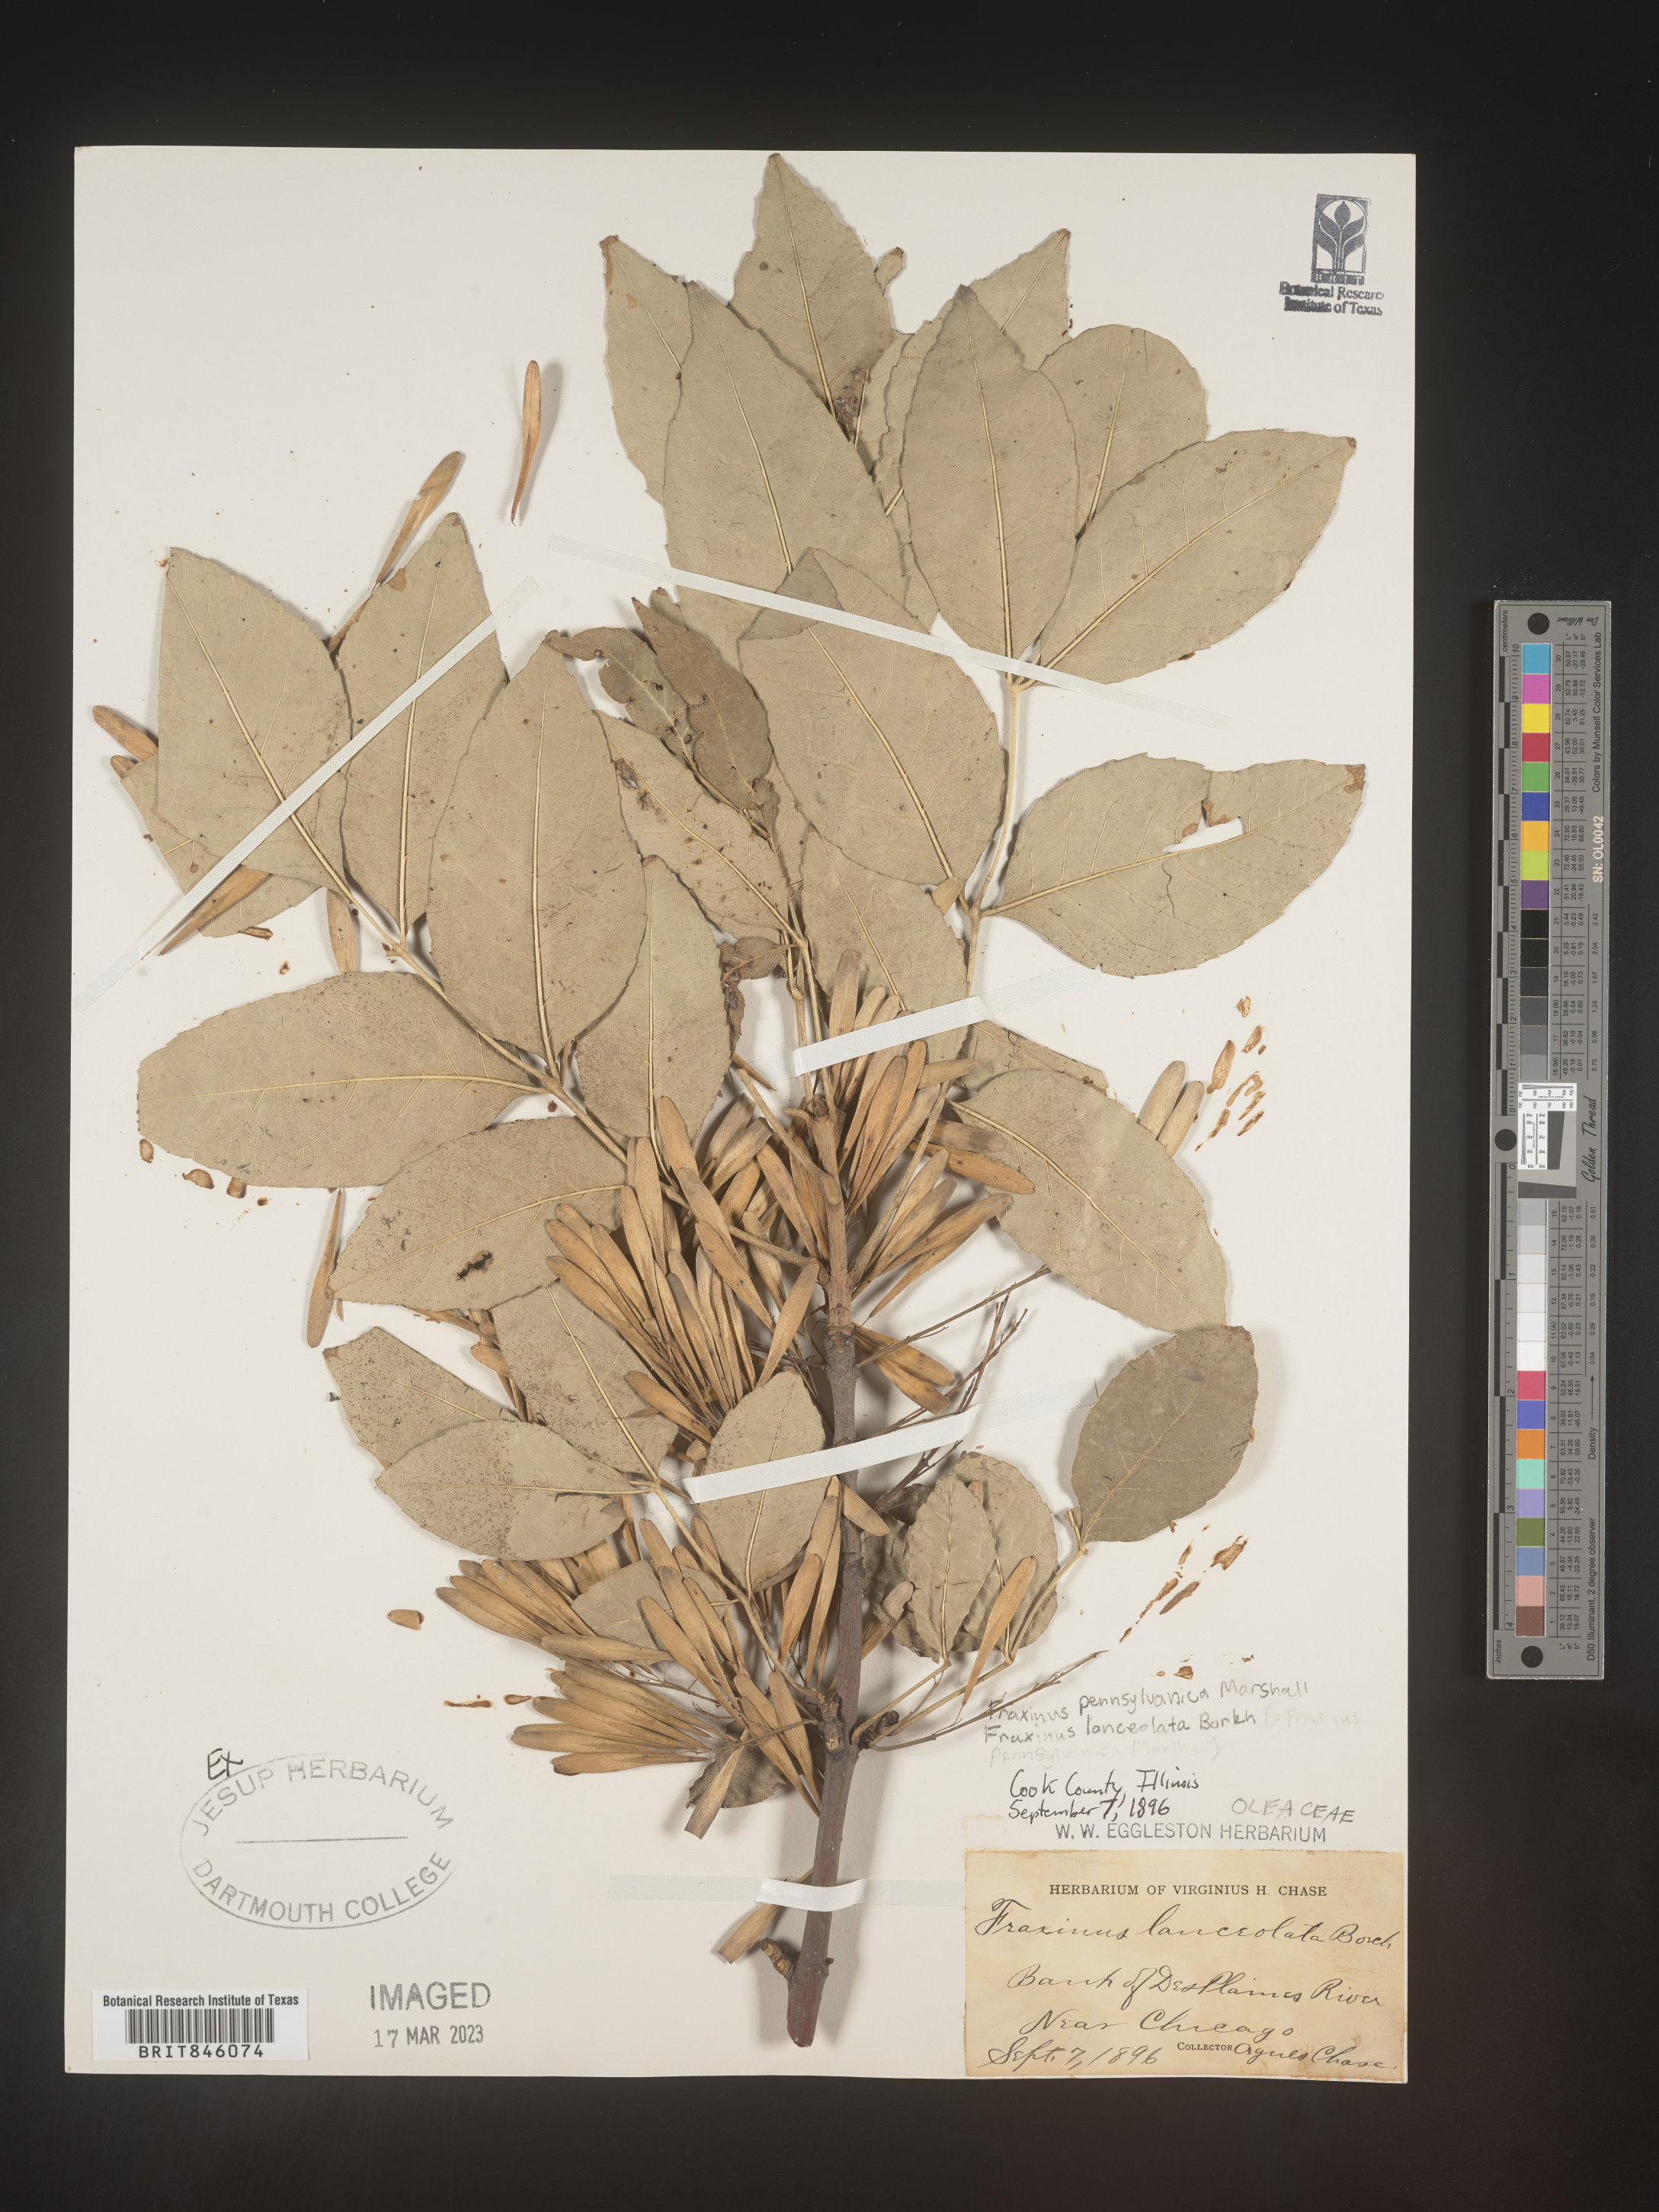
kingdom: Plantae
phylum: Tracheophyta
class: Magnoliopsida
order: Lamiales
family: Oleaceae
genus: Fraxinus
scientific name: Fraxinus pennsylvanica
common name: Green ash
